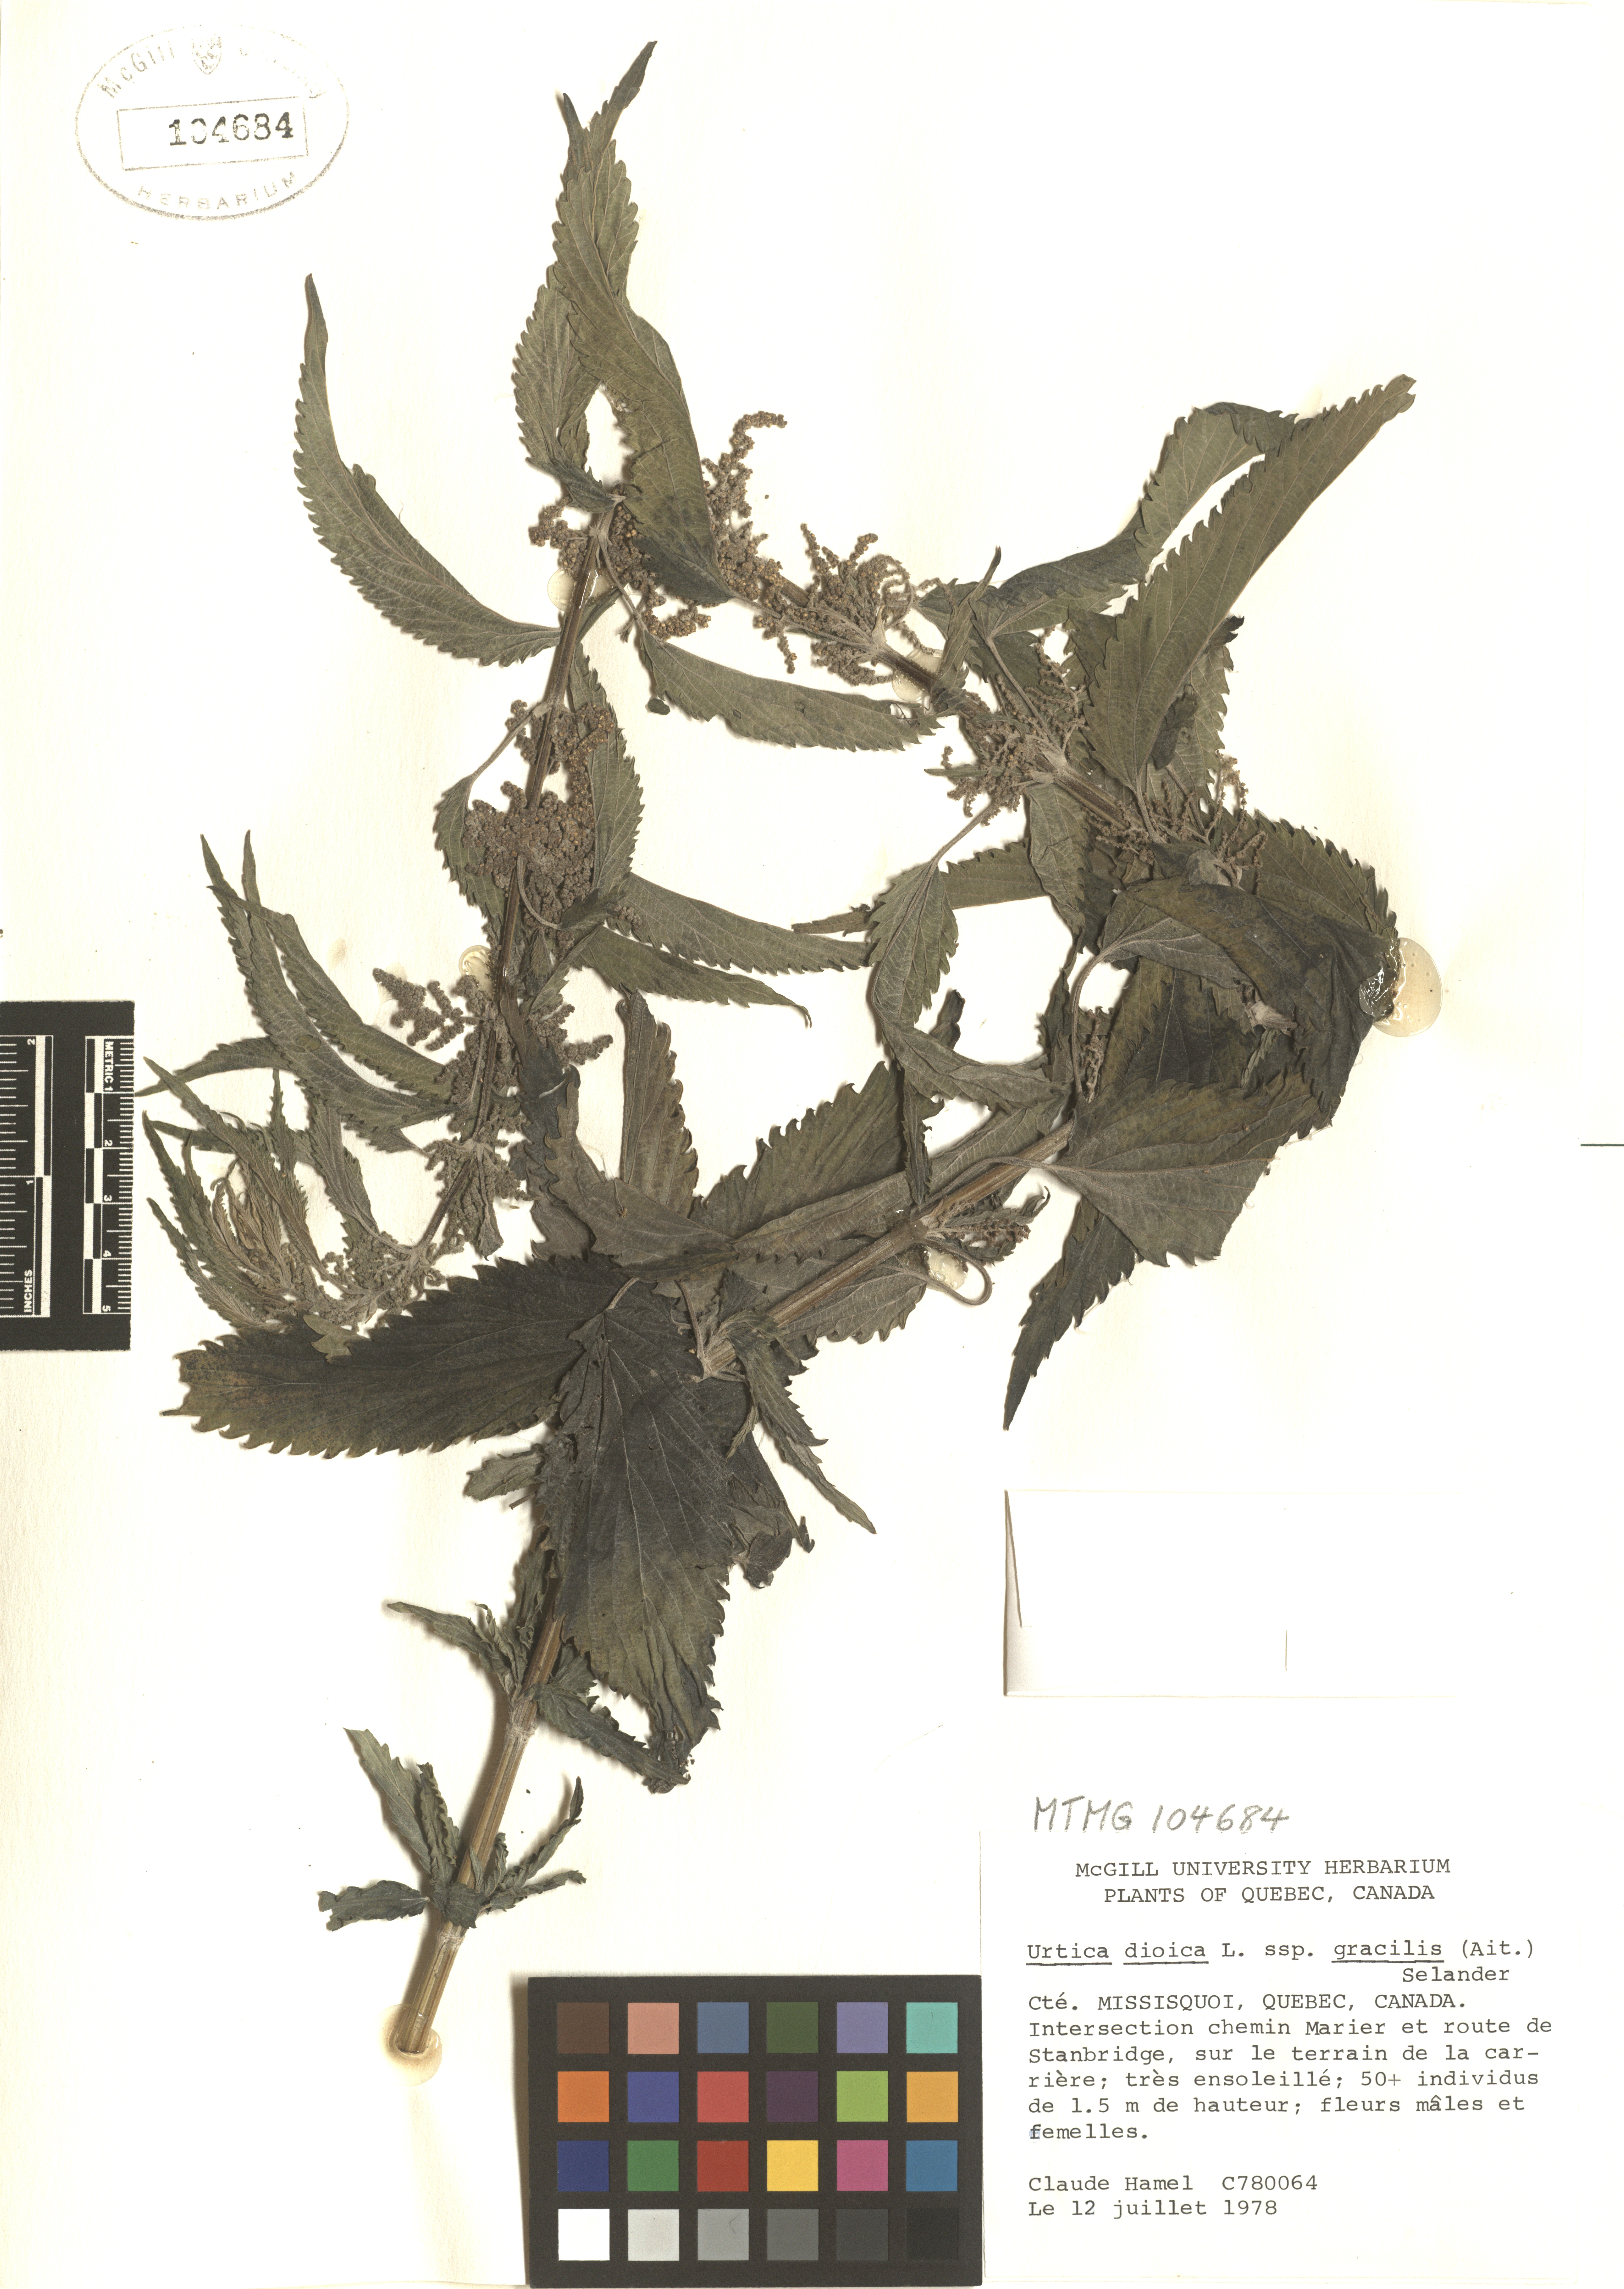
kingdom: Plantae
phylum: Tracheophyta
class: Magnoliopsida
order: Rosales
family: Urticaceae
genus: Urtica
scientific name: Urtica gracilis
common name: Slender stinging nettle
